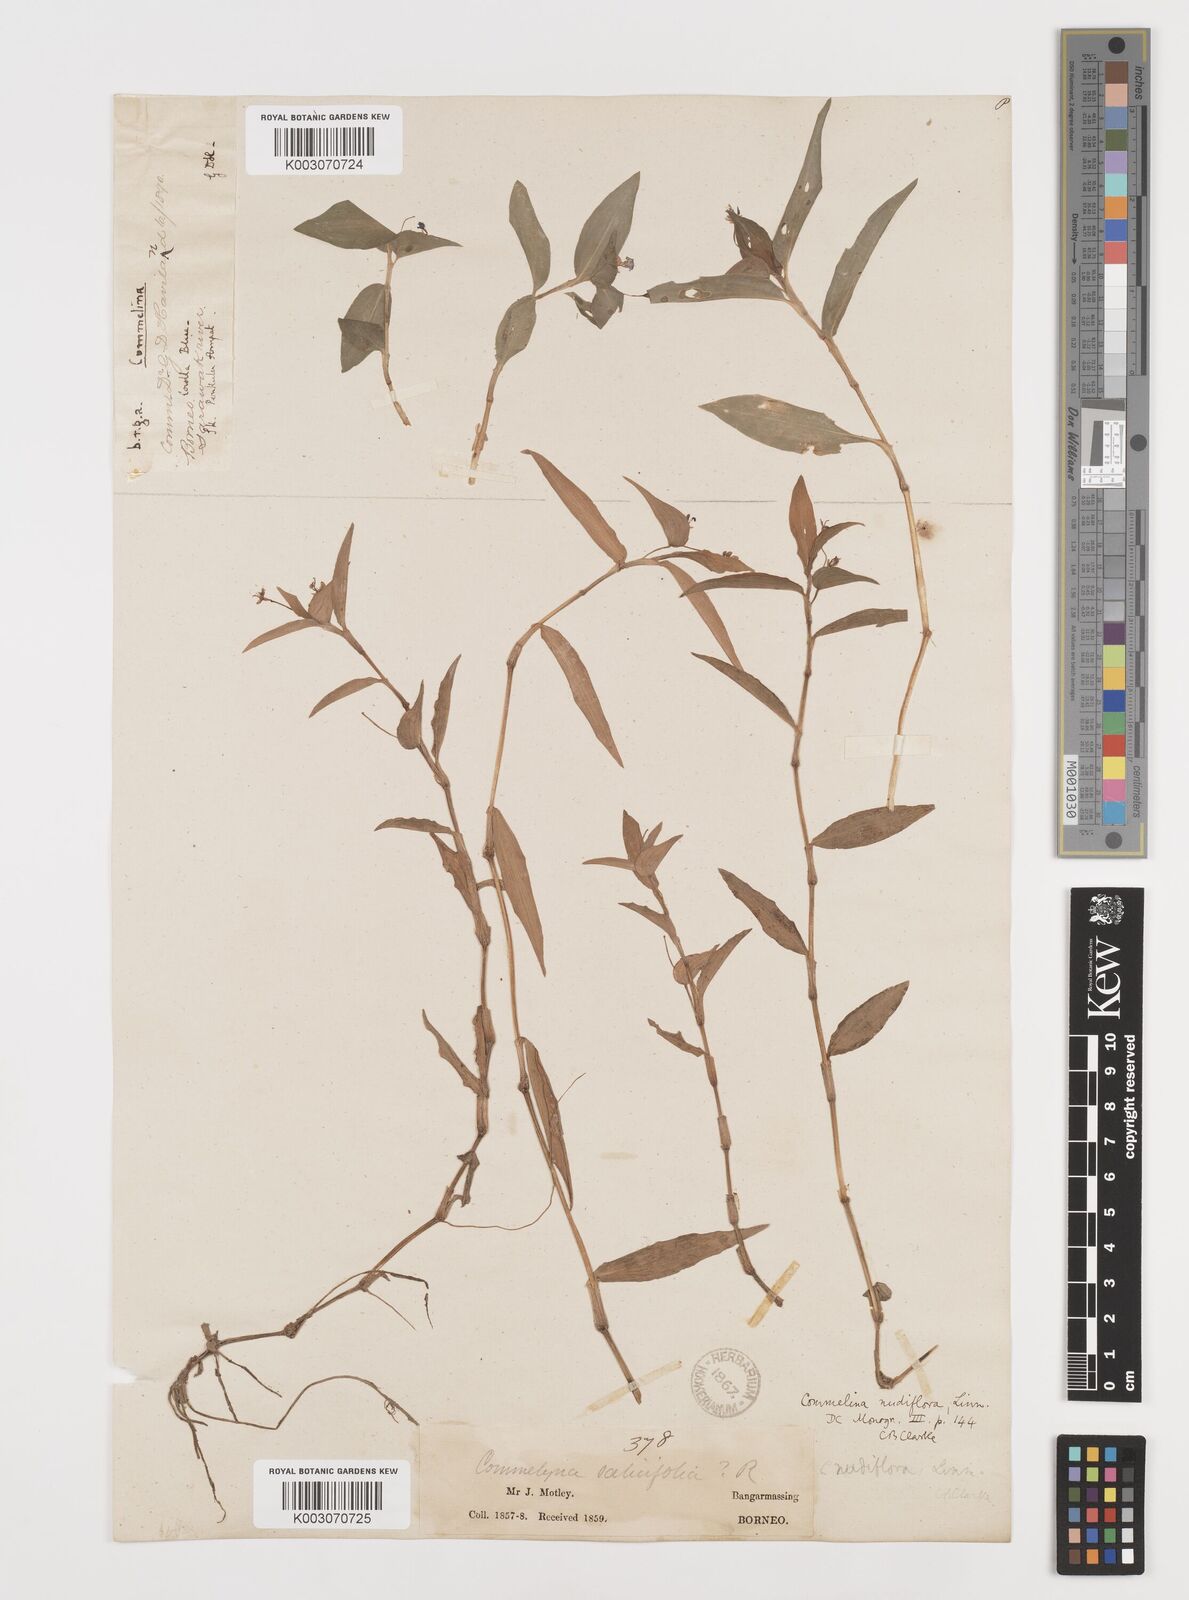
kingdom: Plantae
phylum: Tracheophyta
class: Liliopsida
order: Commelinales
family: Commelinaceae
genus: Commelina
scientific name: Commelina clavata
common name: Willow leaved dayflower
